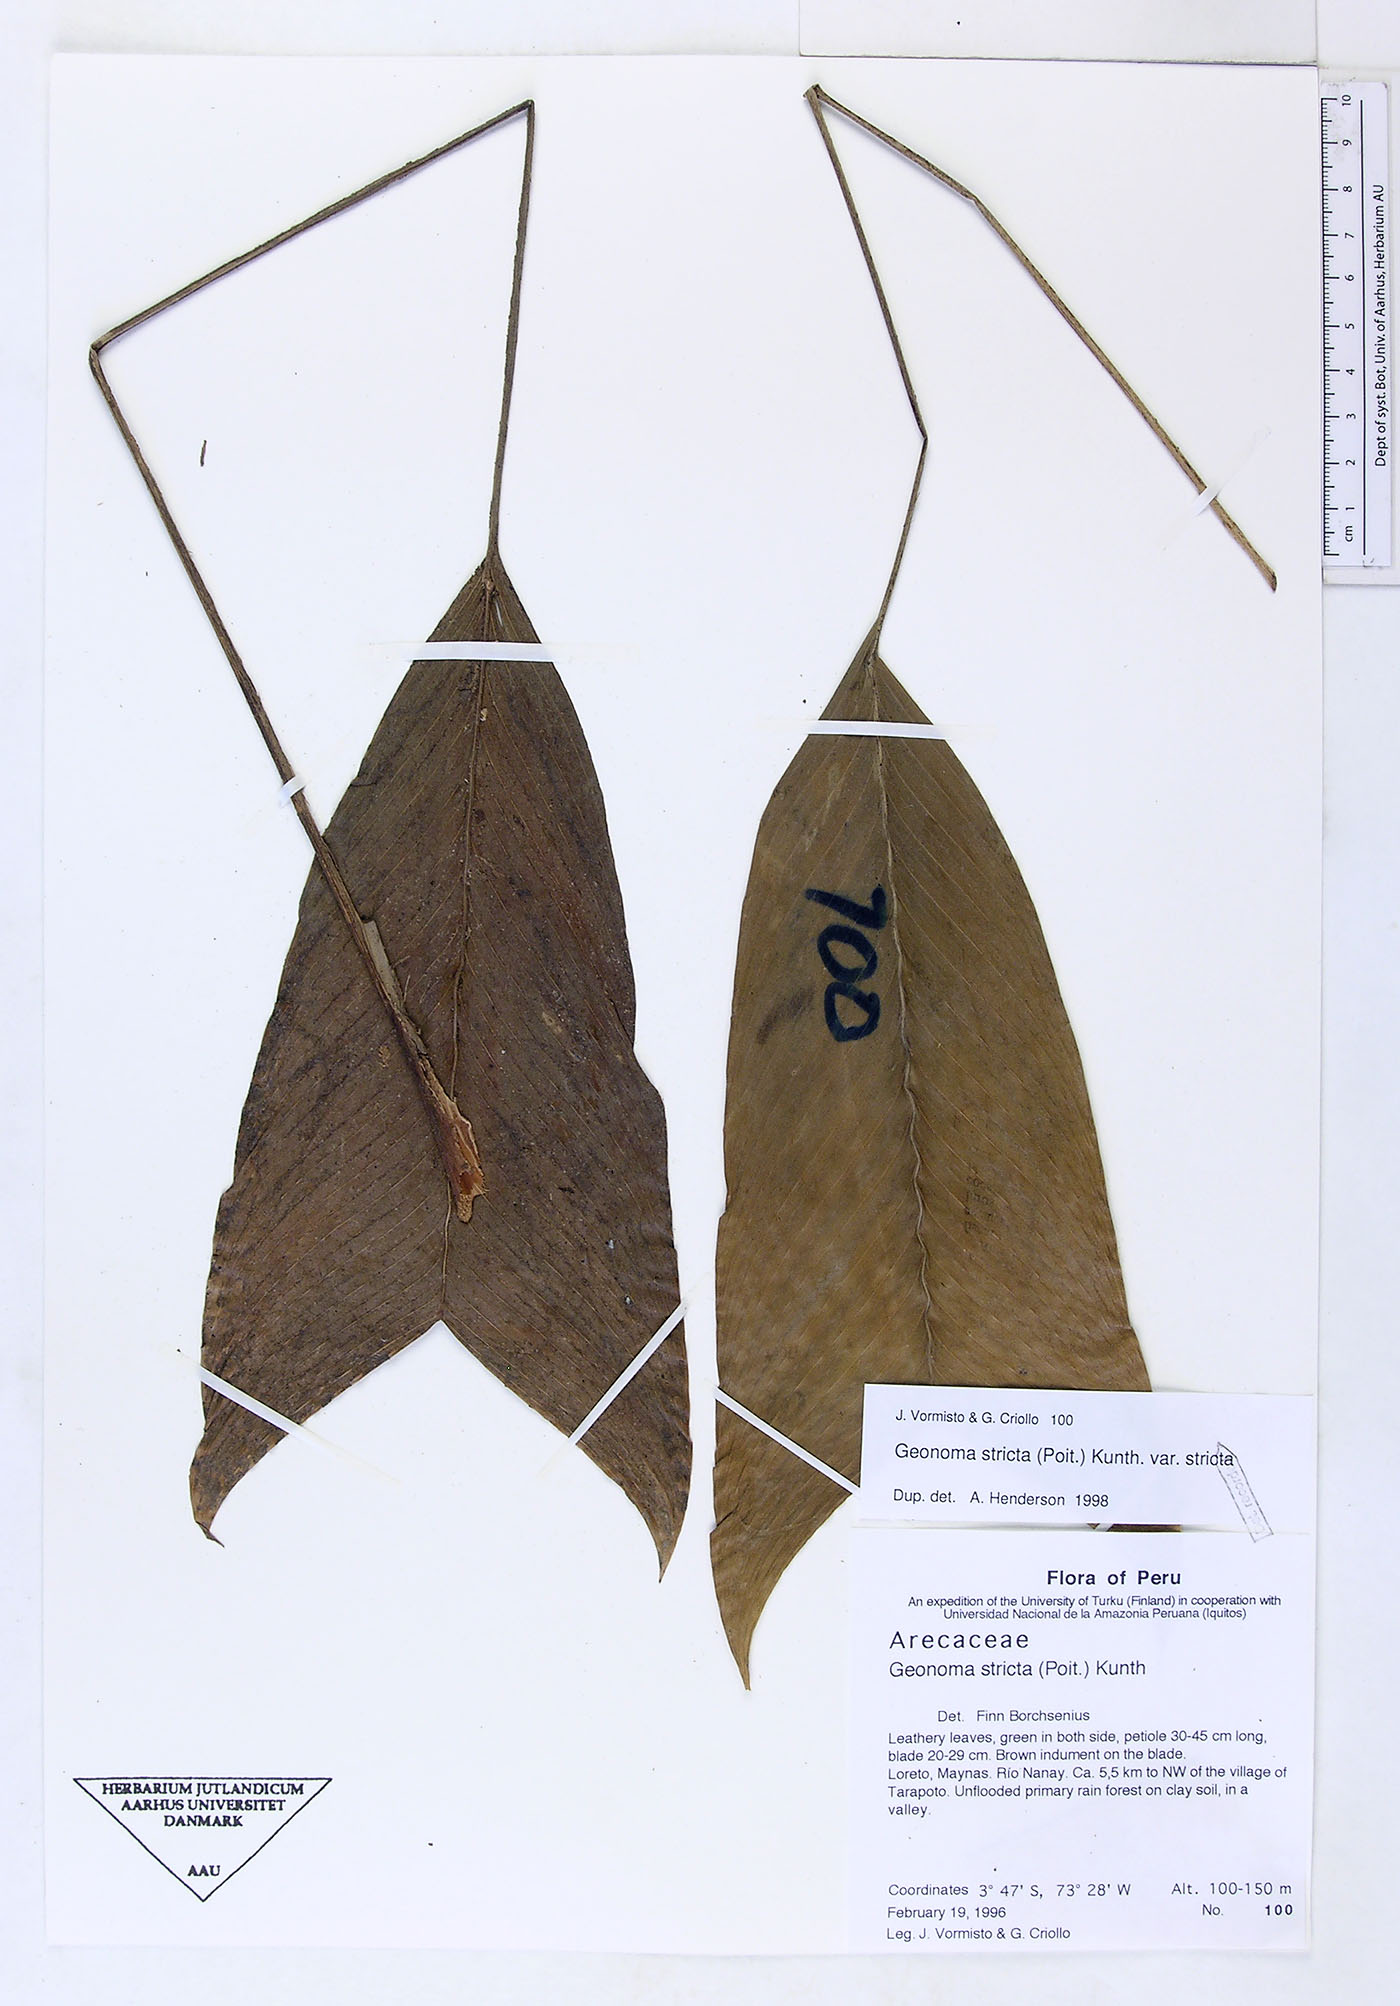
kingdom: Plantae
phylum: Tracheophyta
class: Liliopsida
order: Arecales
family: Arecaceae
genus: Geonoma
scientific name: Geonoma stricta
